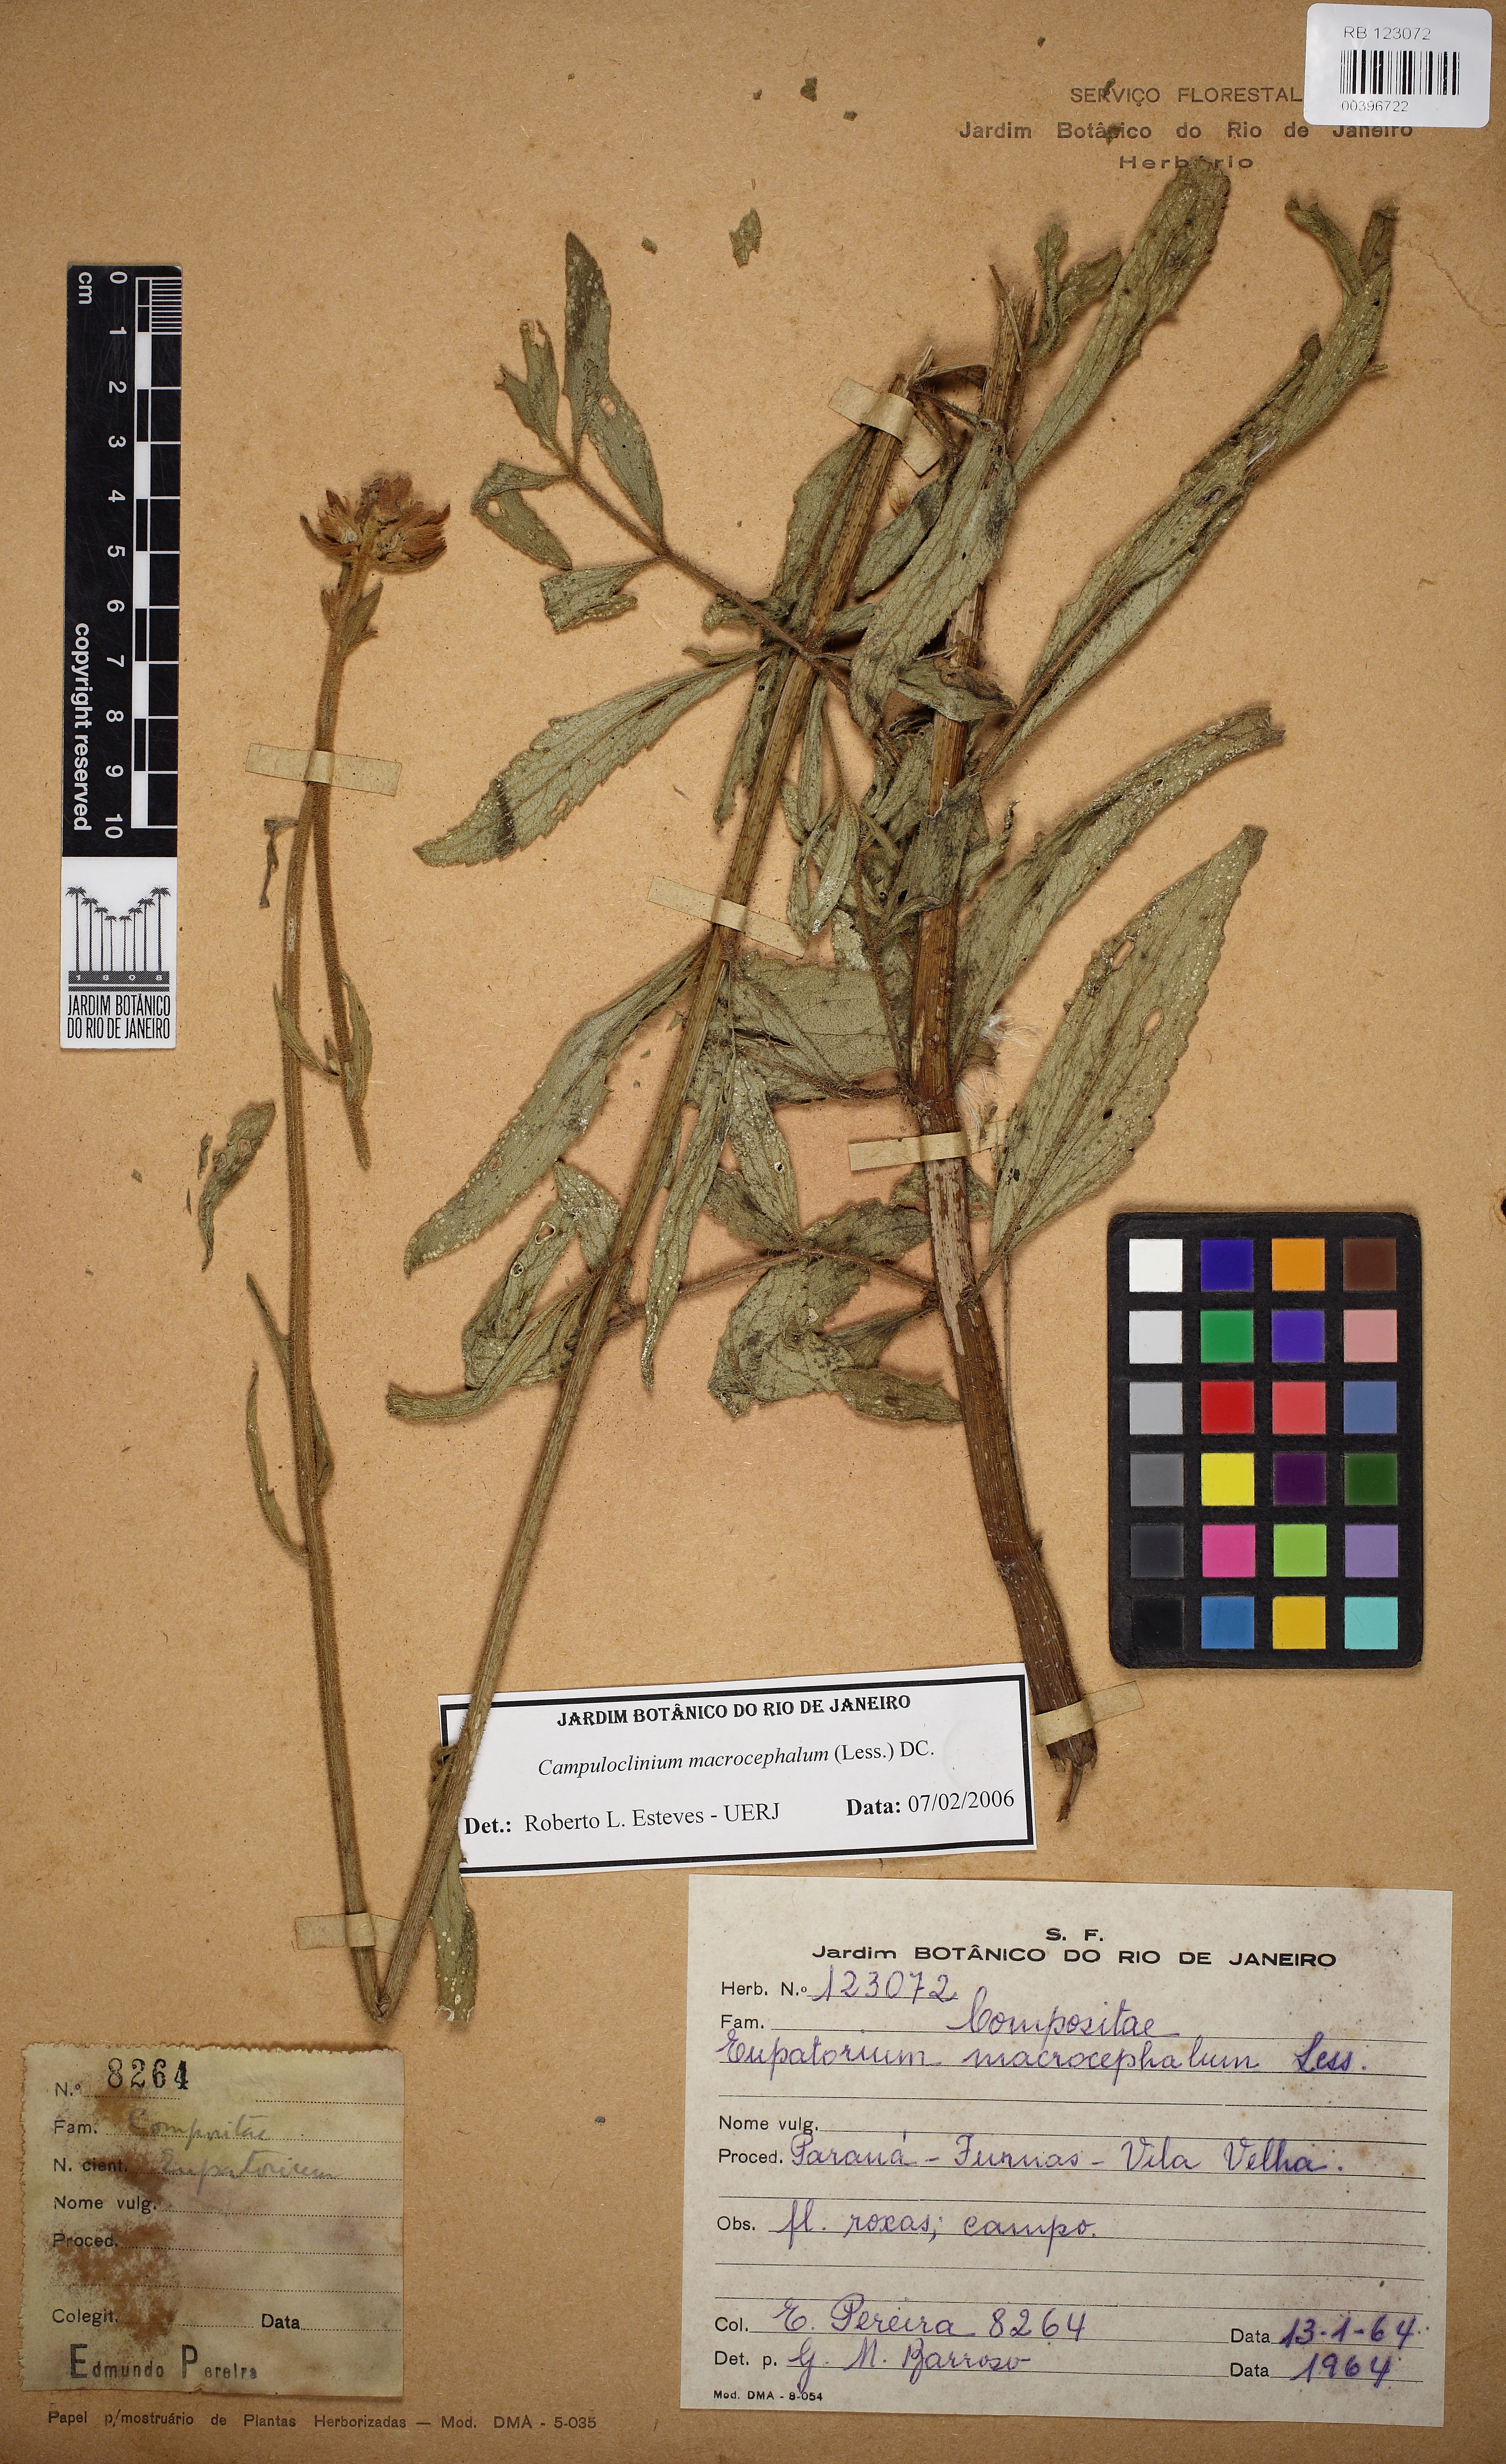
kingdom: Plantae
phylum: Tracheophyta
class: Magnoliopsida
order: Asterales
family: Asteraceae
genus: Campuloclinium
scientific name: Campuloclinium macrocephalum
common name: Pompomweed
